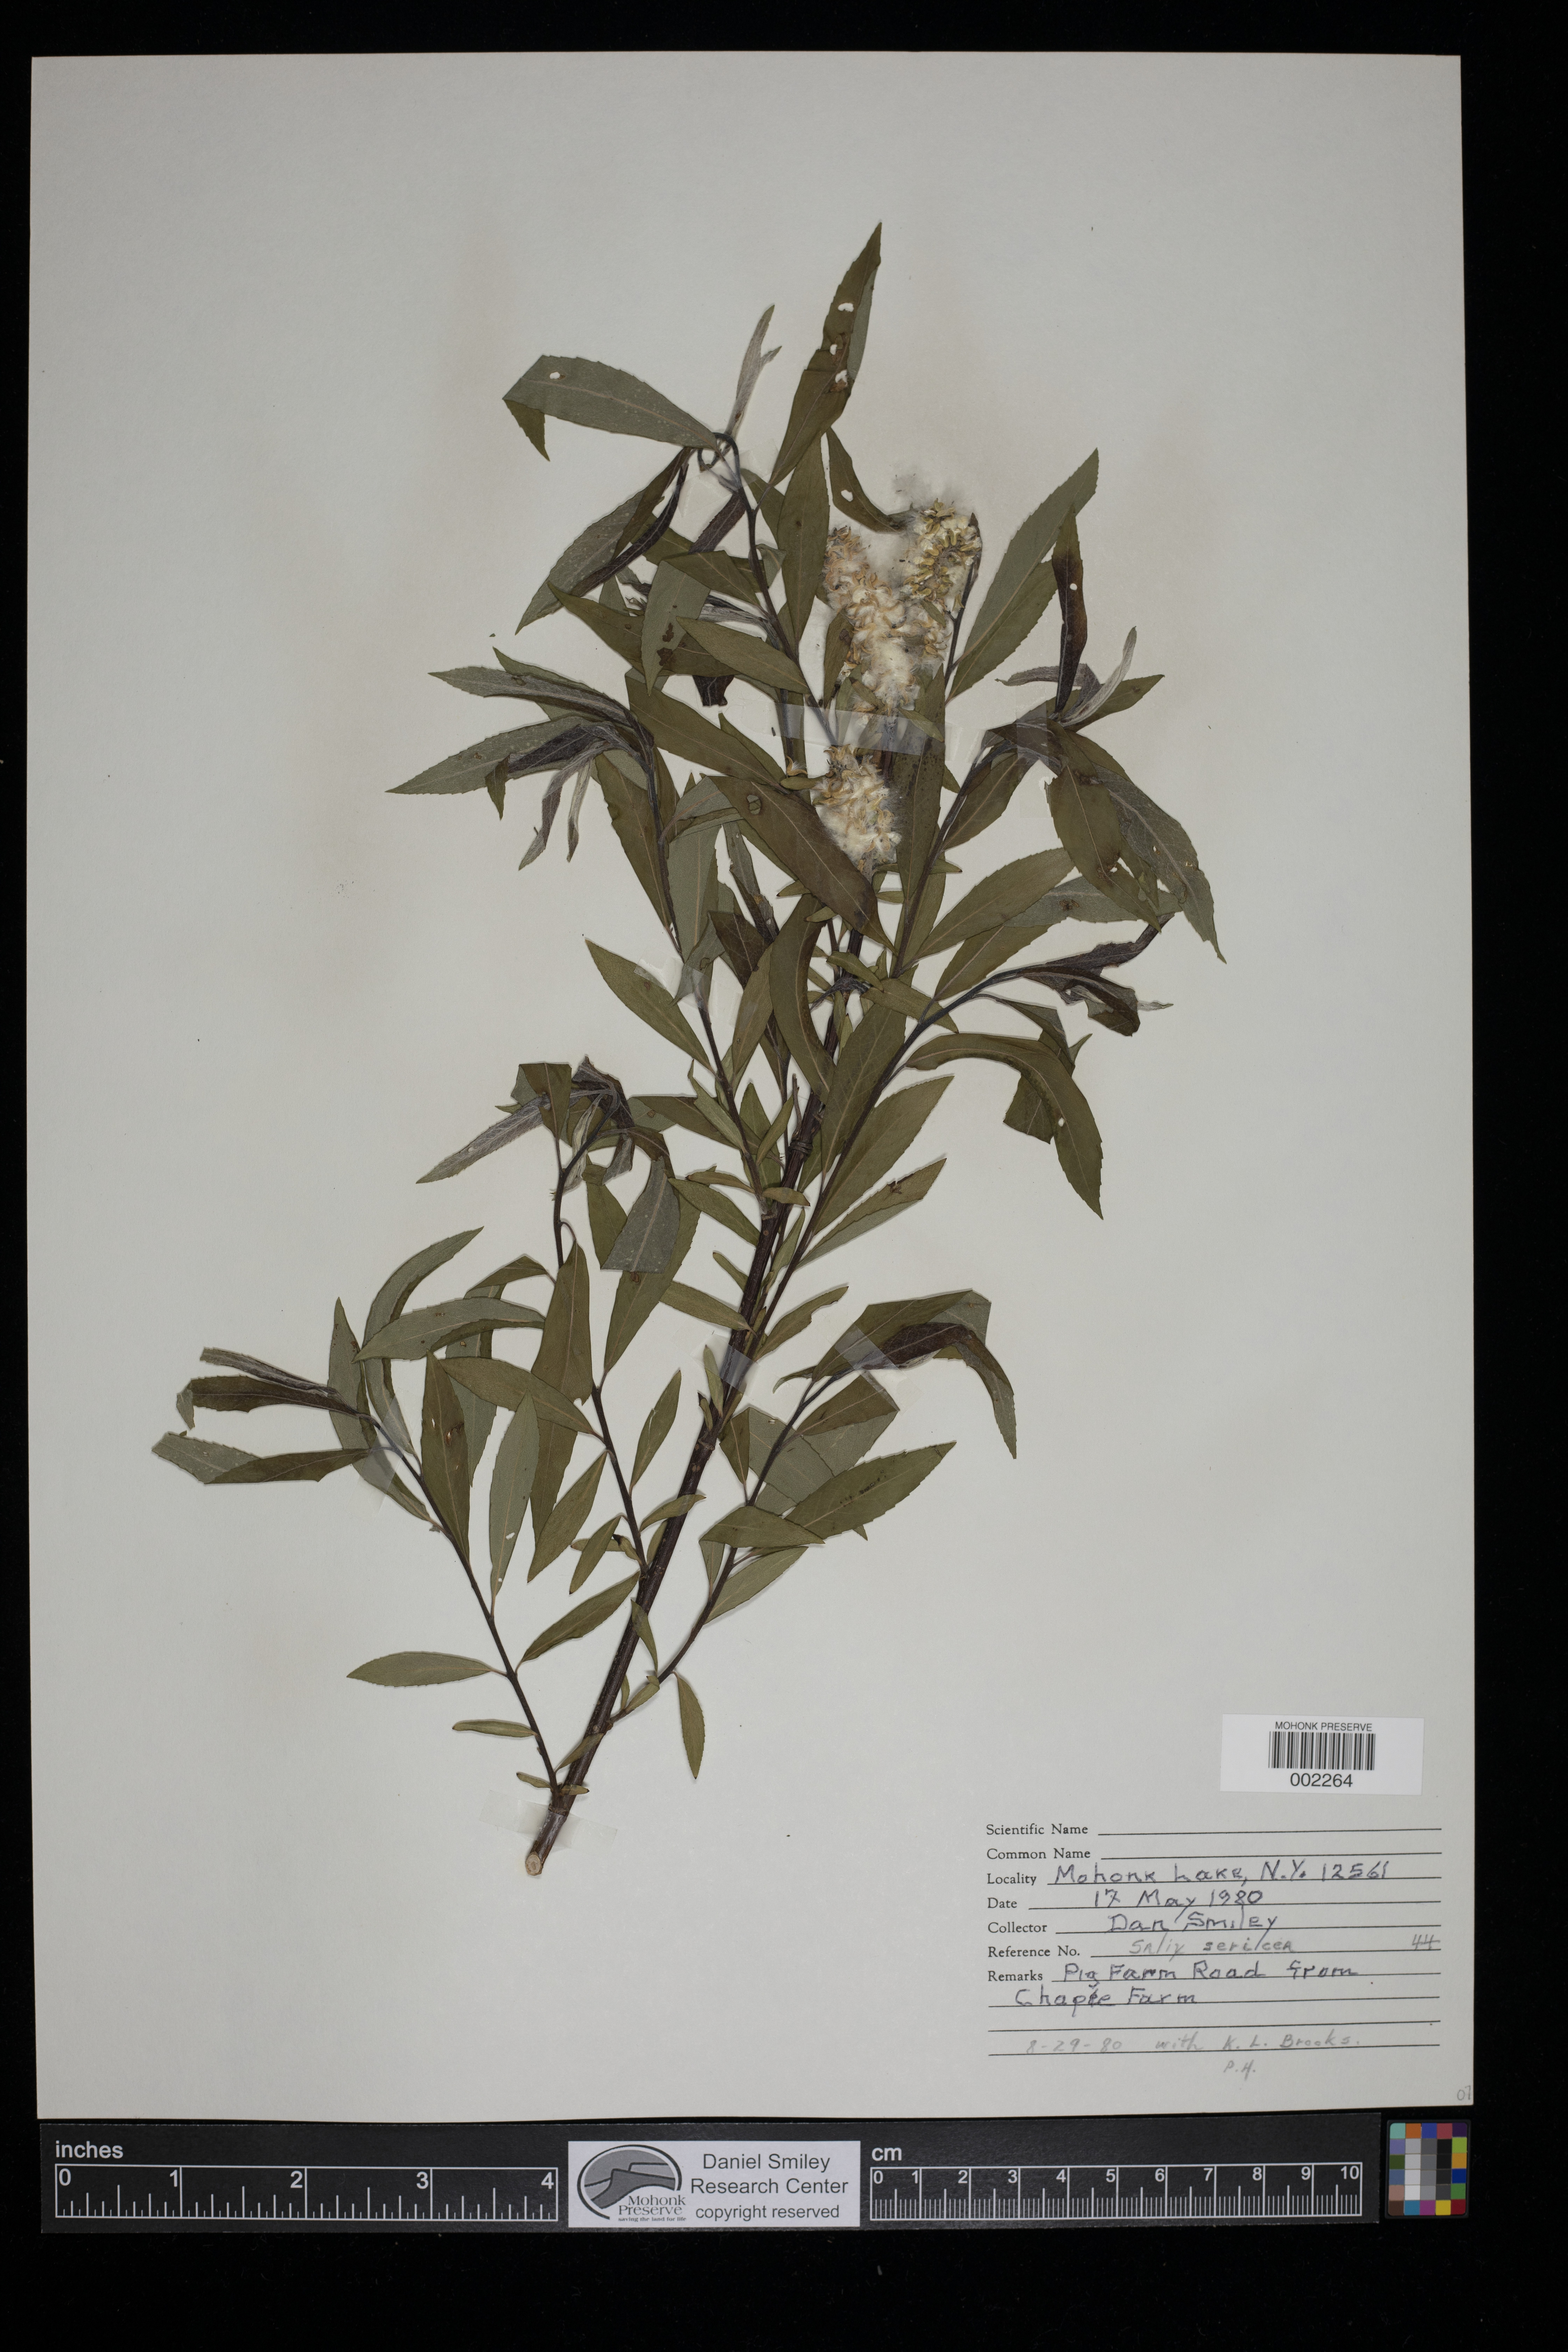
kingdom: Plantae
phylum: Tracheophyta
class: Magnoliopsida
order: Malpighiales
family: Salicaceae
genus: Salix
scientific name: Salix sericea
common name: Silky willow
